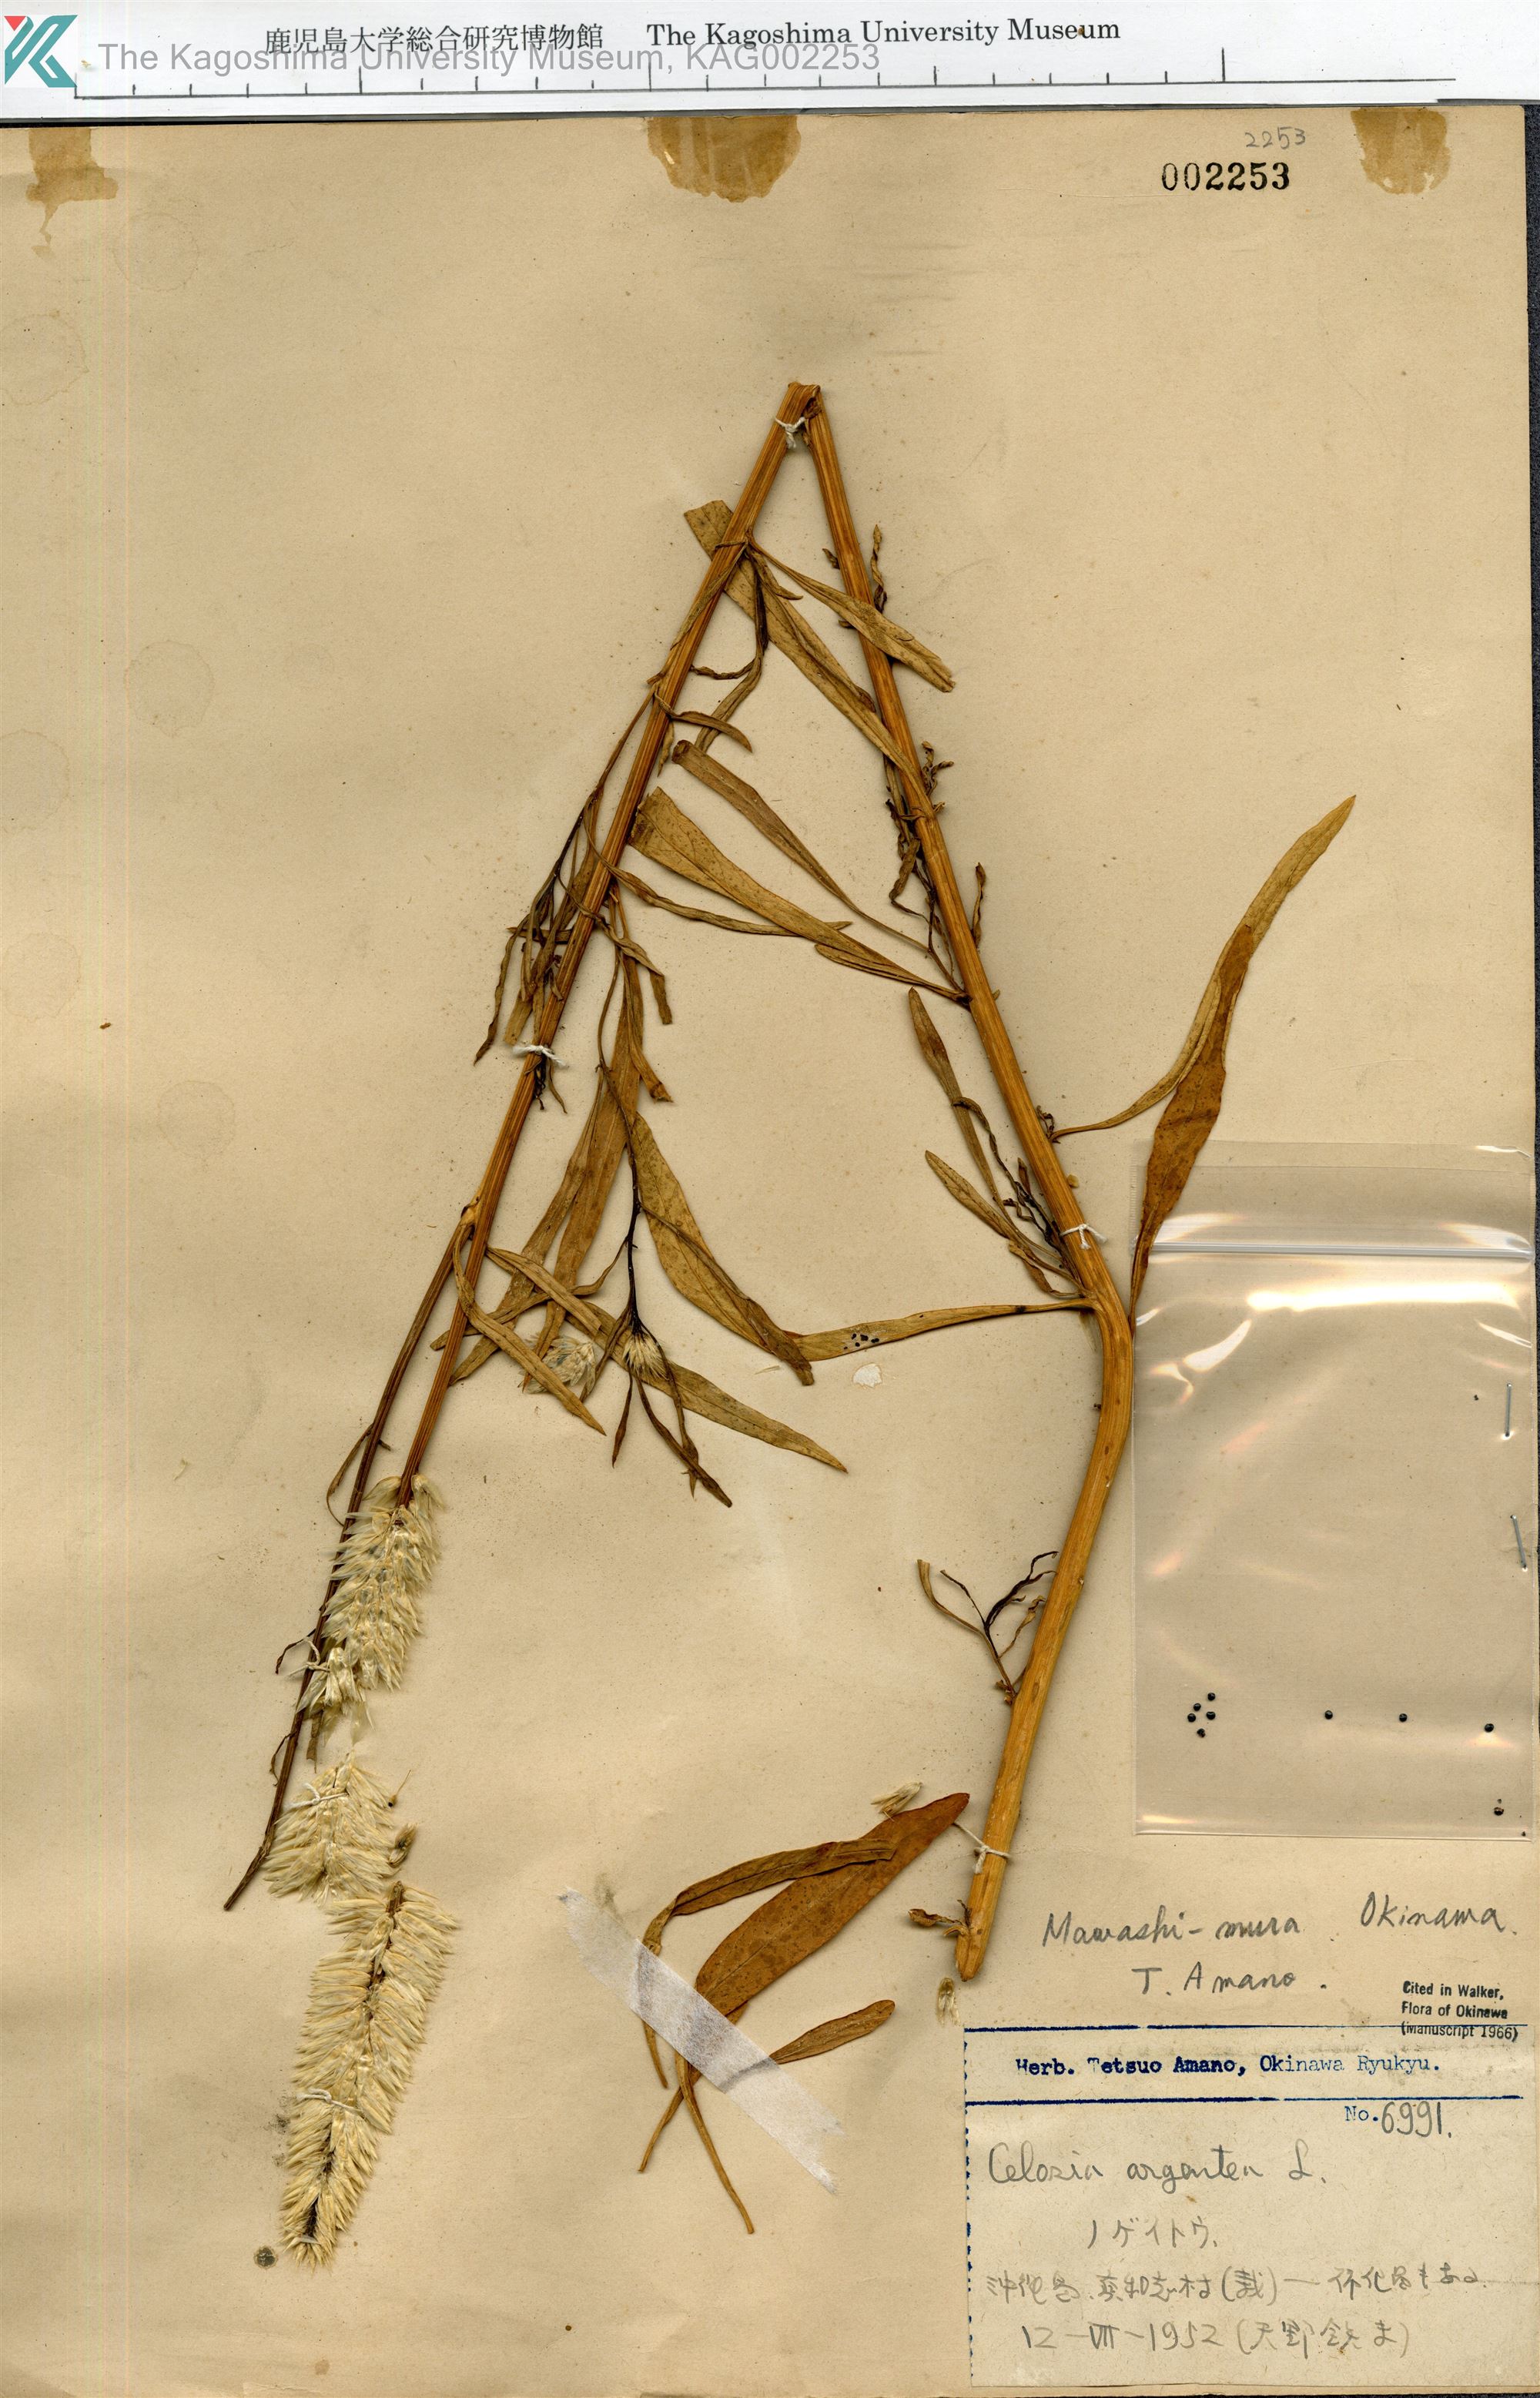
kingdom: Plantae
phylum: Tracheophyta
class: Magnoliopsida
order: Caryophyllales
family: Amaranthaceae
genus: Celosia
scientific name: Celosia argentea
